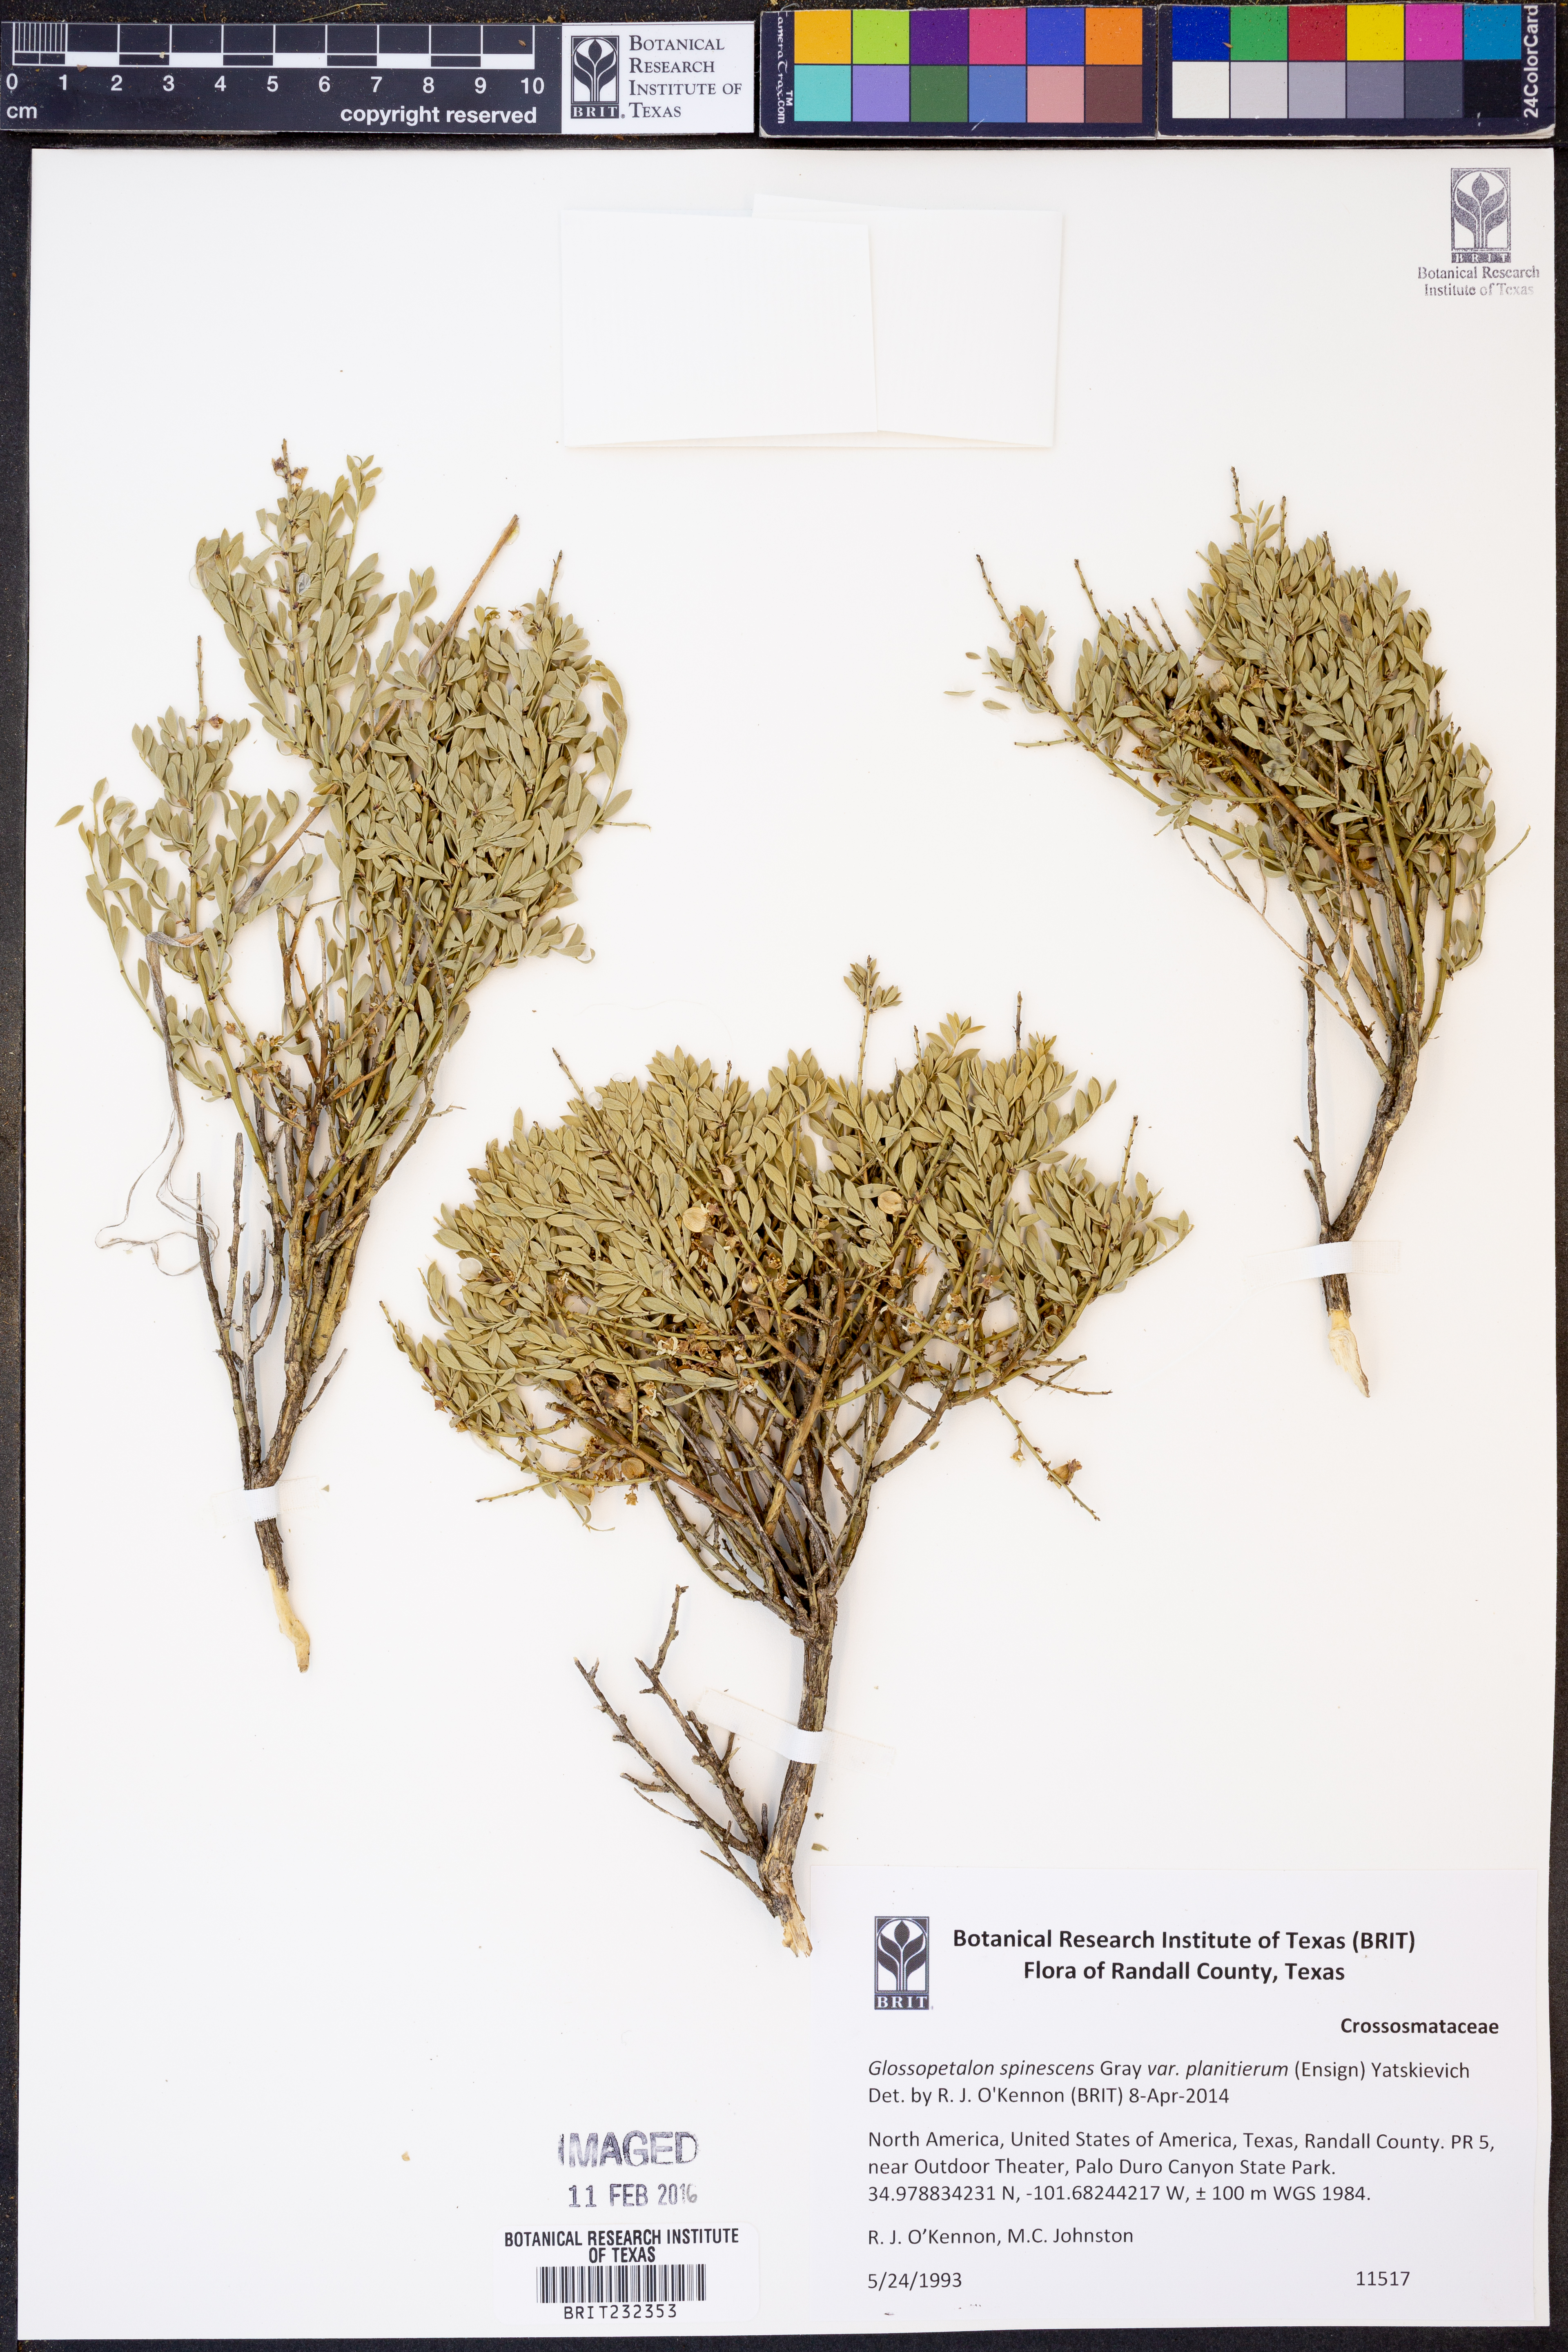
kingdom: Plantae
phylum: Tracheophyta
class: Magnoliopsida
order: Crossosomatales
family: Crossosomataceae
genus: Glossopetalon
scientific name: Glossopetalon spinescens
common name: Spring greasebush
